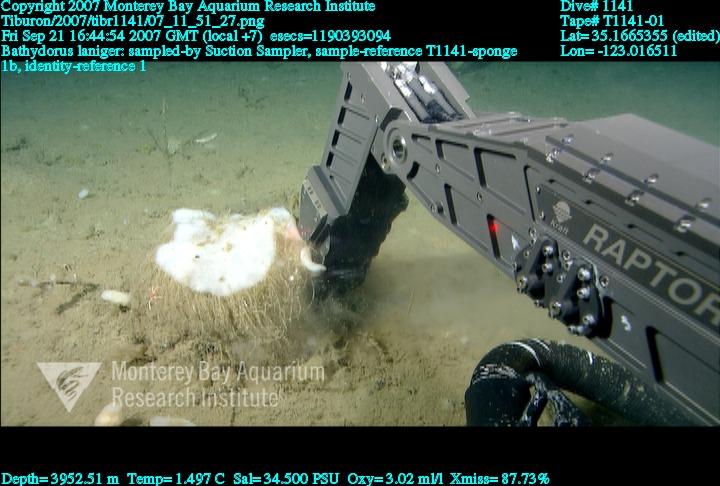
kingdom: Animalia
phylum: Porifera
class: Hexactinellida
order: Lyssacinosida
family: Rossellidae
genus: Bathydorus
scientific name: Bathydorus laniger
